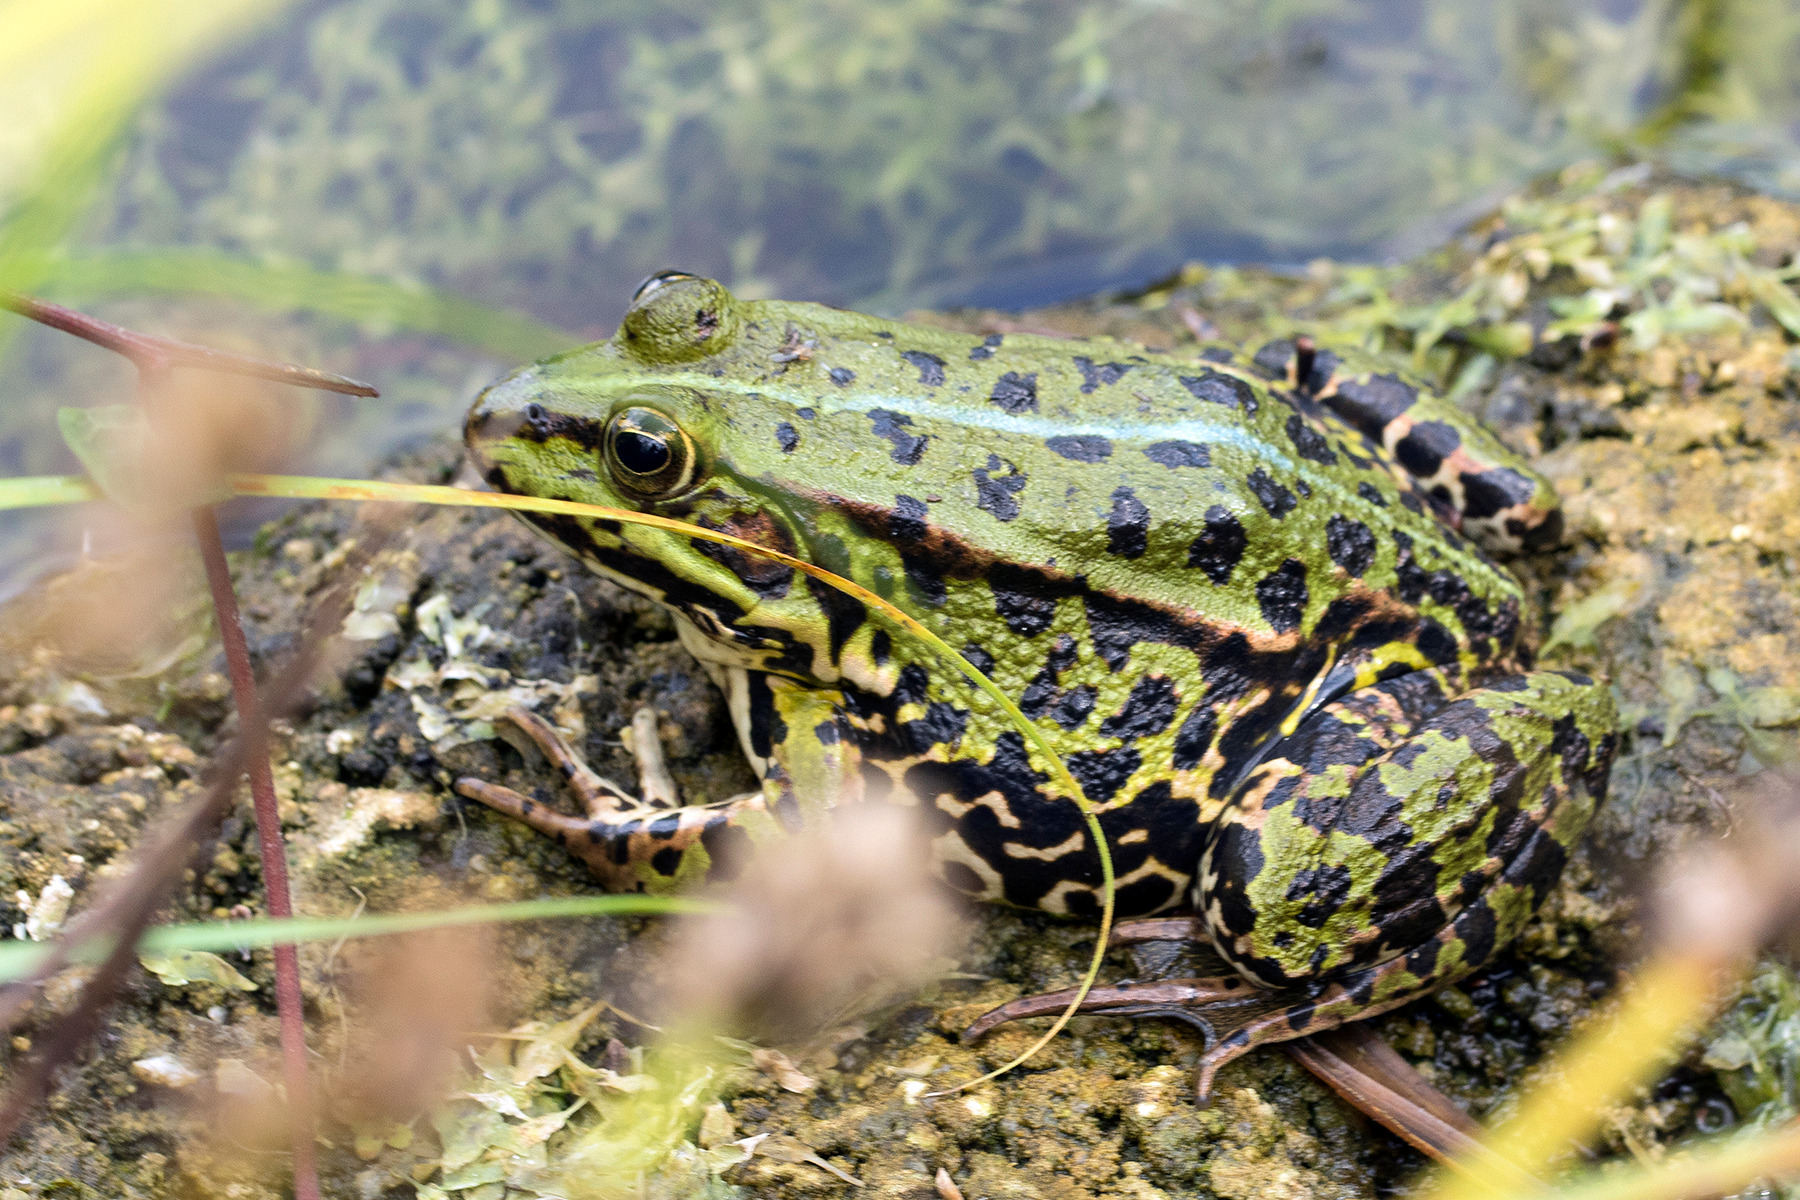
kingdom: Animalia
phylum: Chordata
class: Amphibia
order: Anura
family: Ranidae
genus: Pelophylax
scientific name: Pelophylax lessonae
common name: Grøn frø
